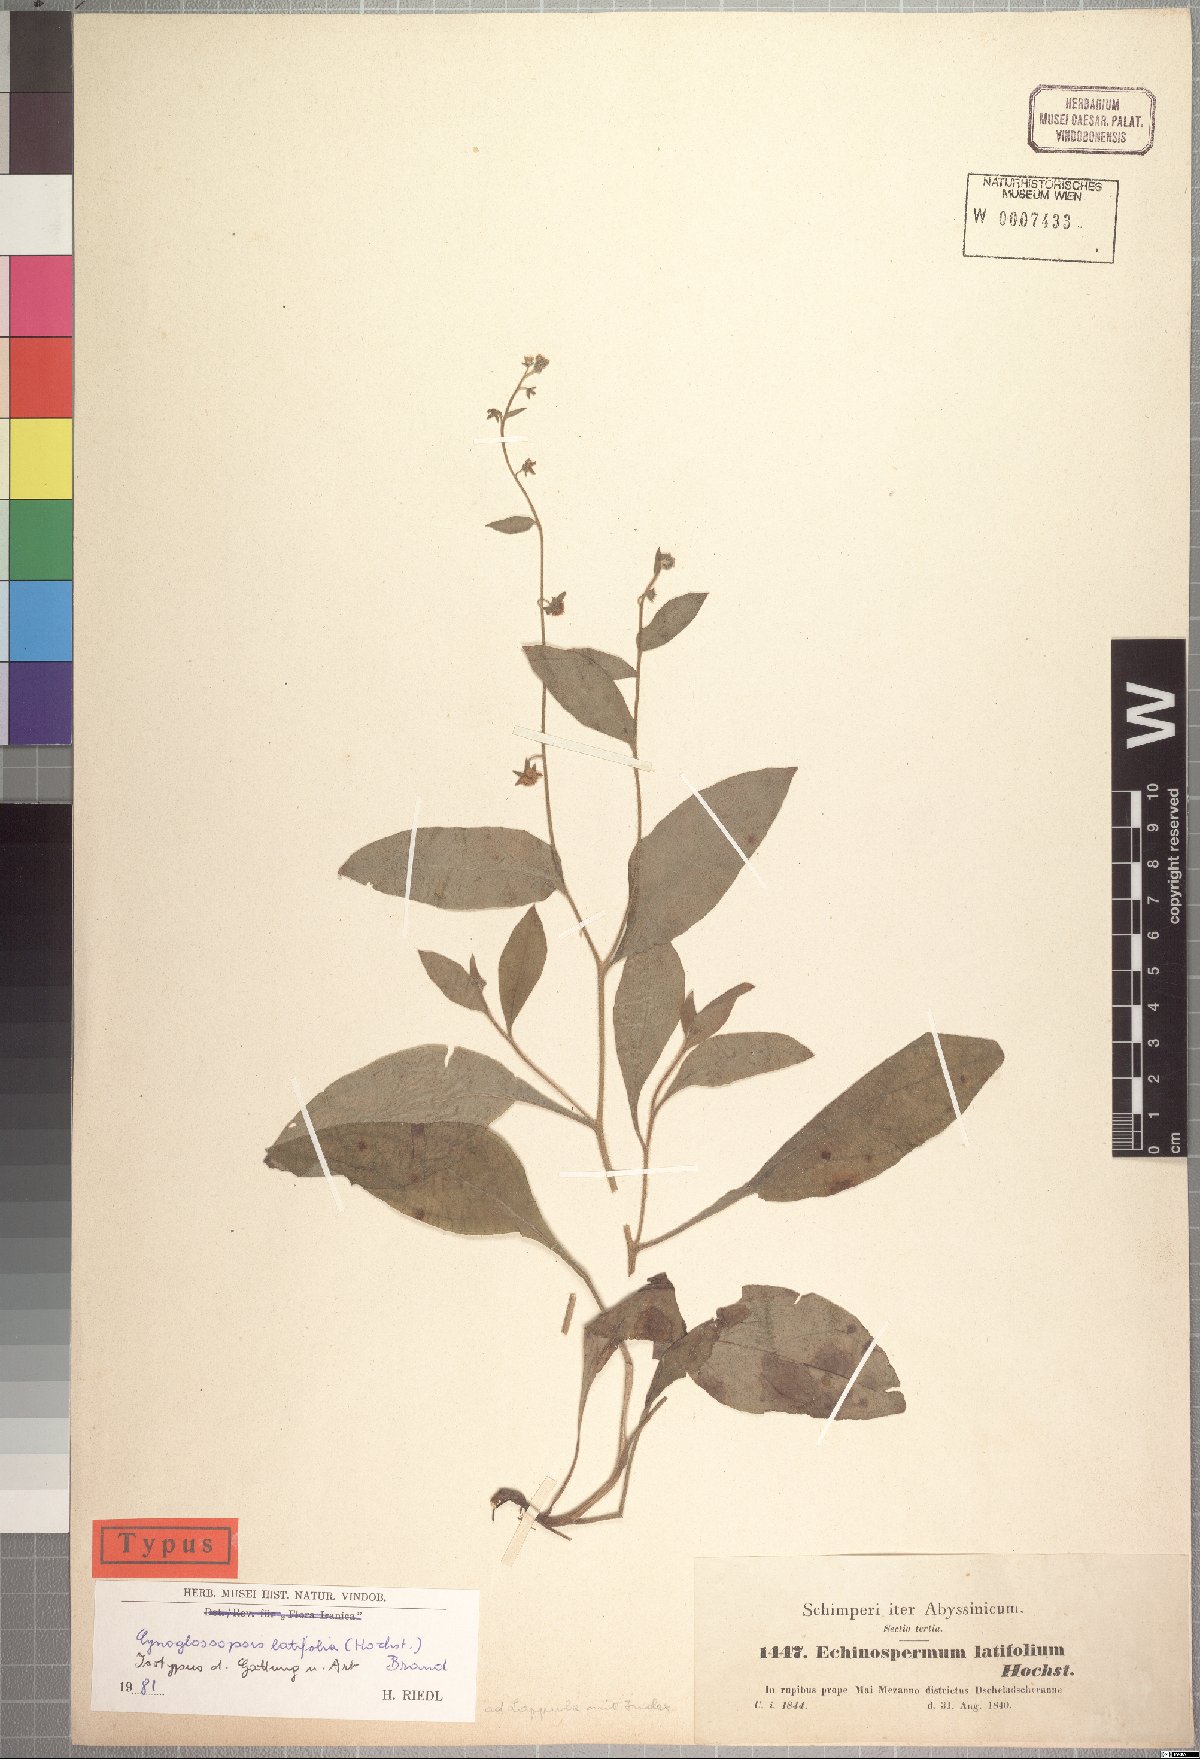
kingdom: Plantae
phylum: Tracheophyta
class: Magnoliopsida
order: Boraginales
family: Boraginaceae
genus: Cynoglossopsis
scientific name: Cynoglossopsis latifolia
